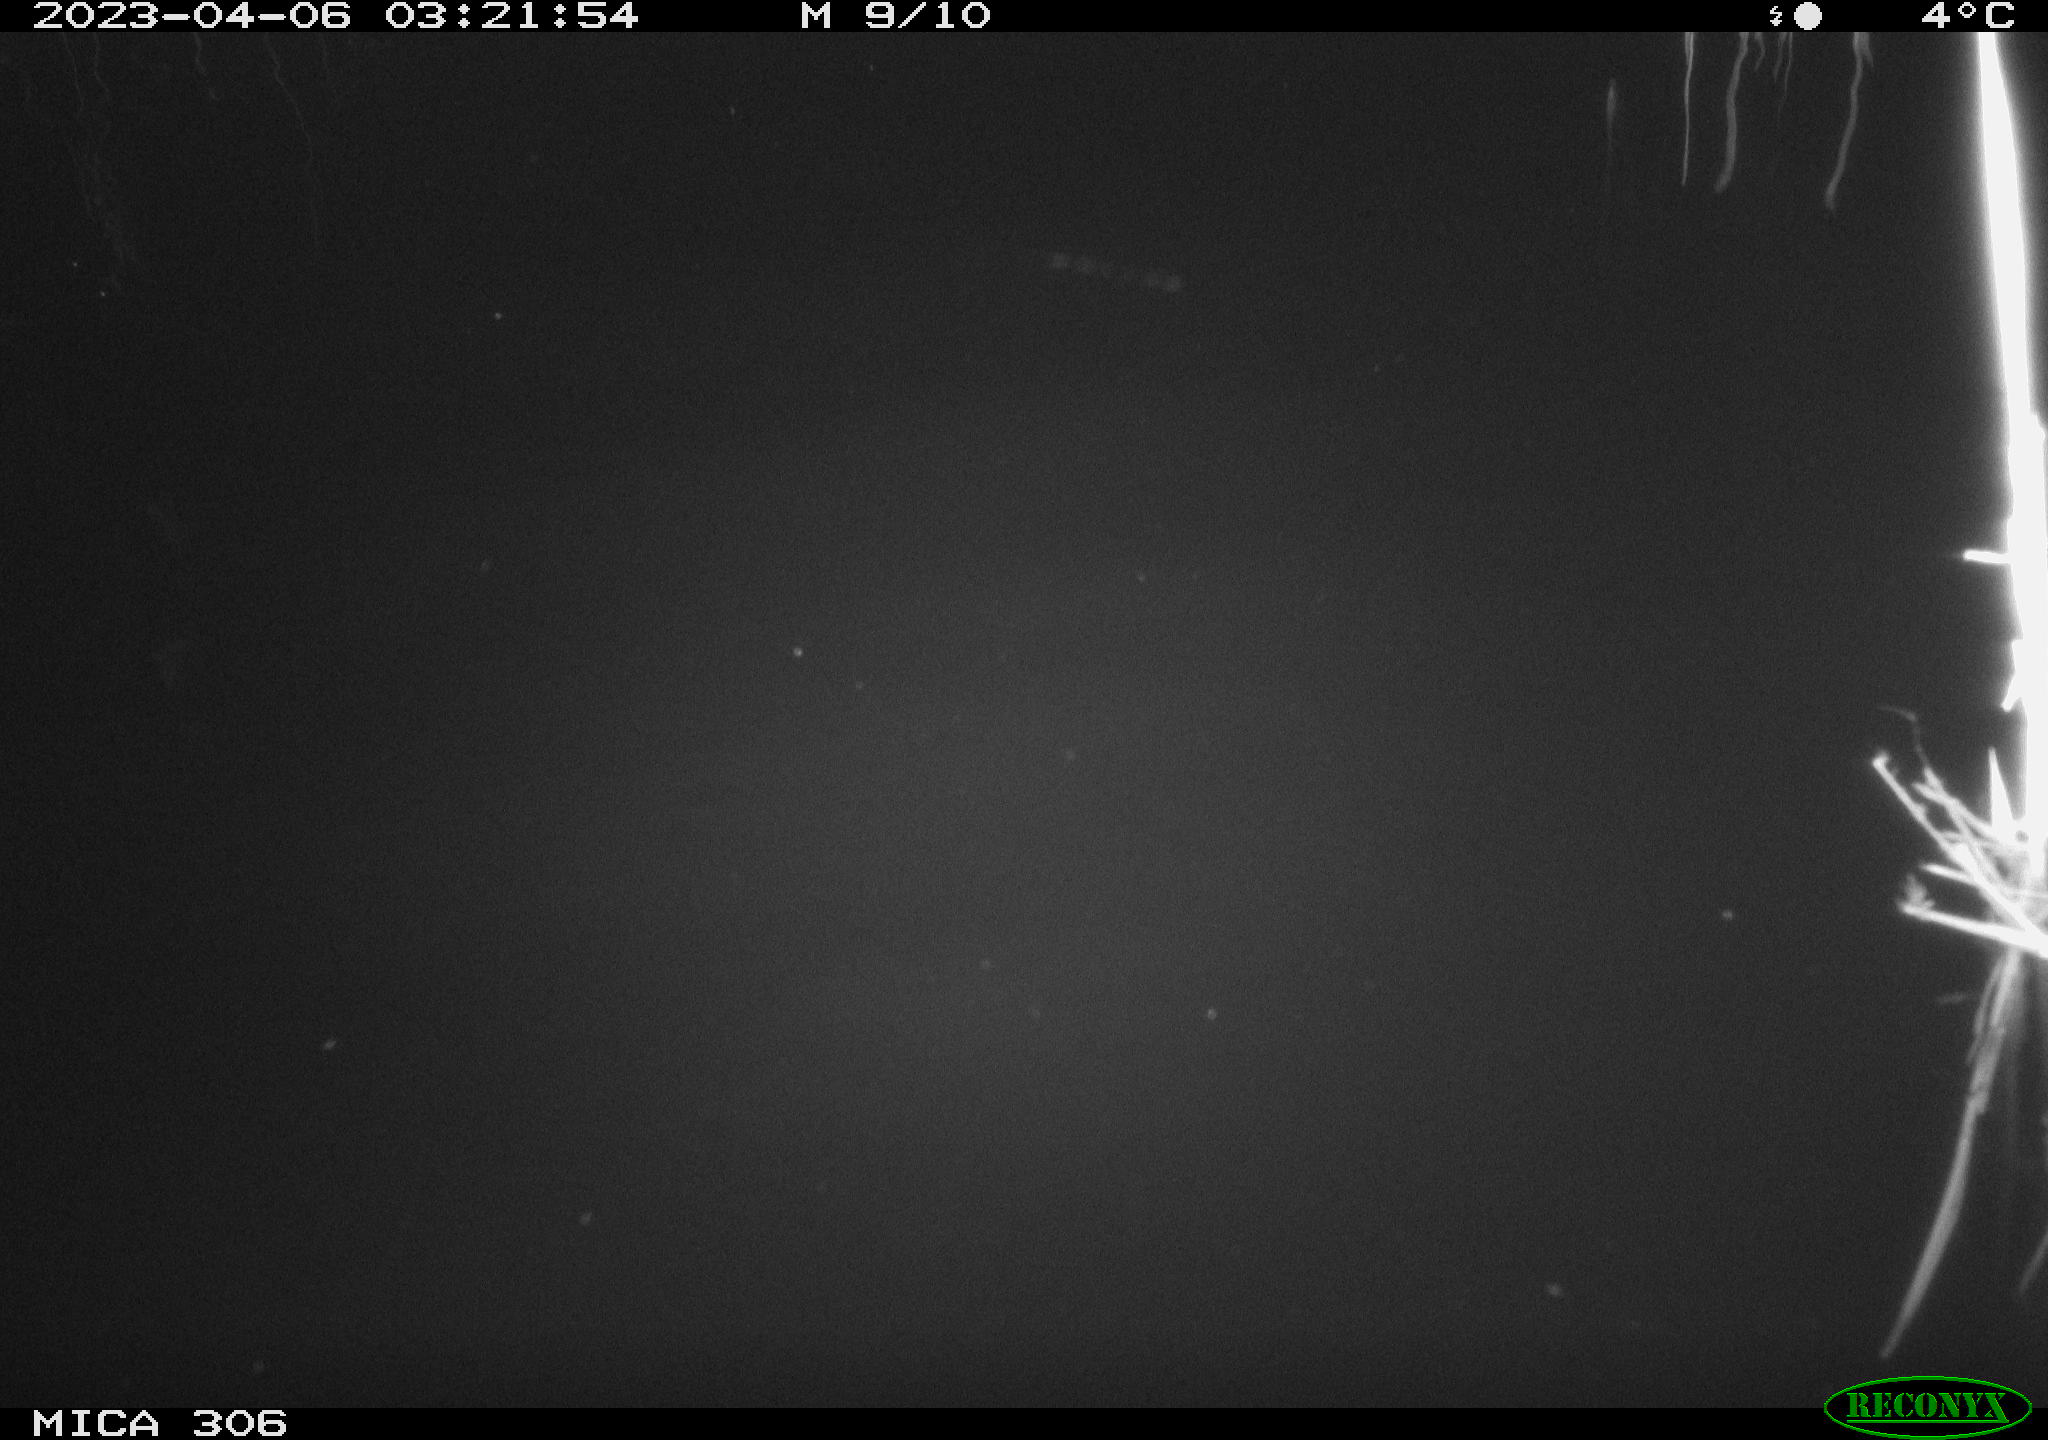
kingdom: Animalia
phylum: Chordata
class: Aves
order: Pelecaniformes
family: Ardeidae
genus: Ardea
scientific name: Ardea cinerea
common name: Grey heron
